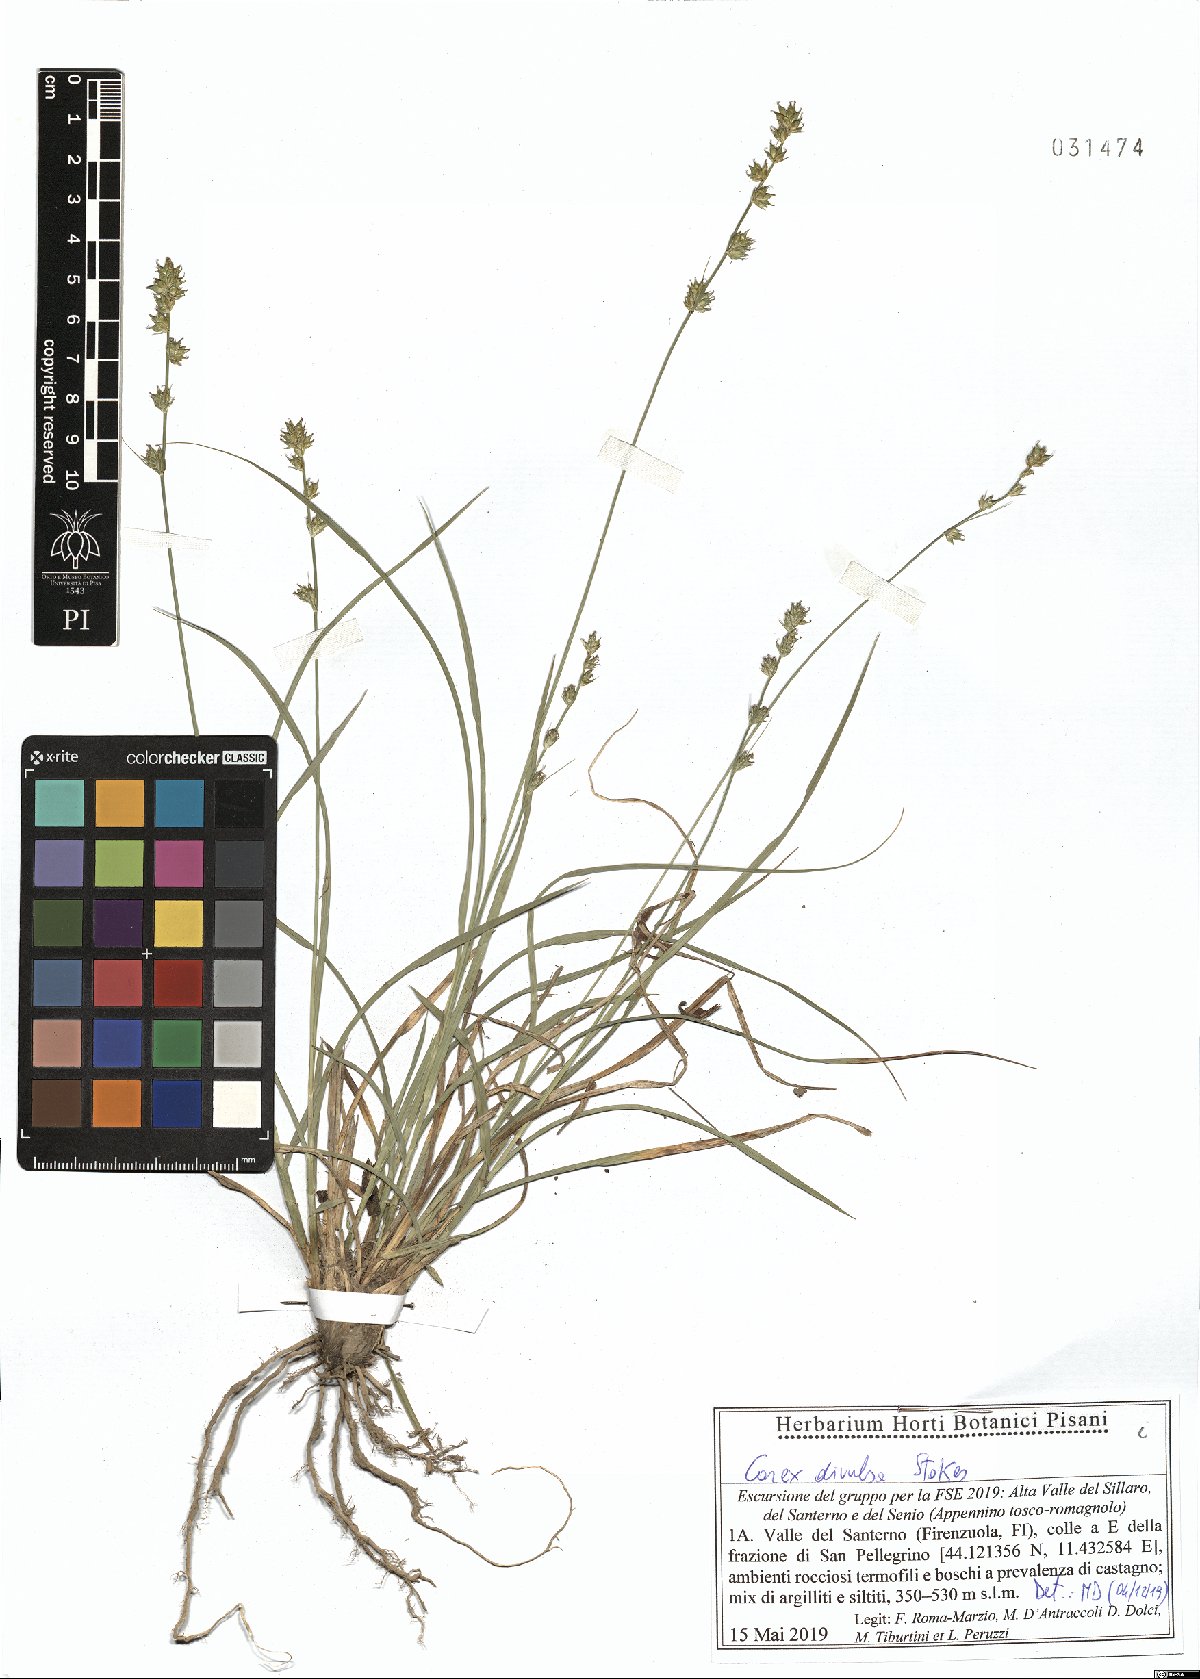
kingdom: Plantae
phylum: Tracheophyta
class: Liliopsida
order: Poales
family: Cyperaceae
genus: Carex
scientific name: Carex divulsa
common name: Grassland sedge
